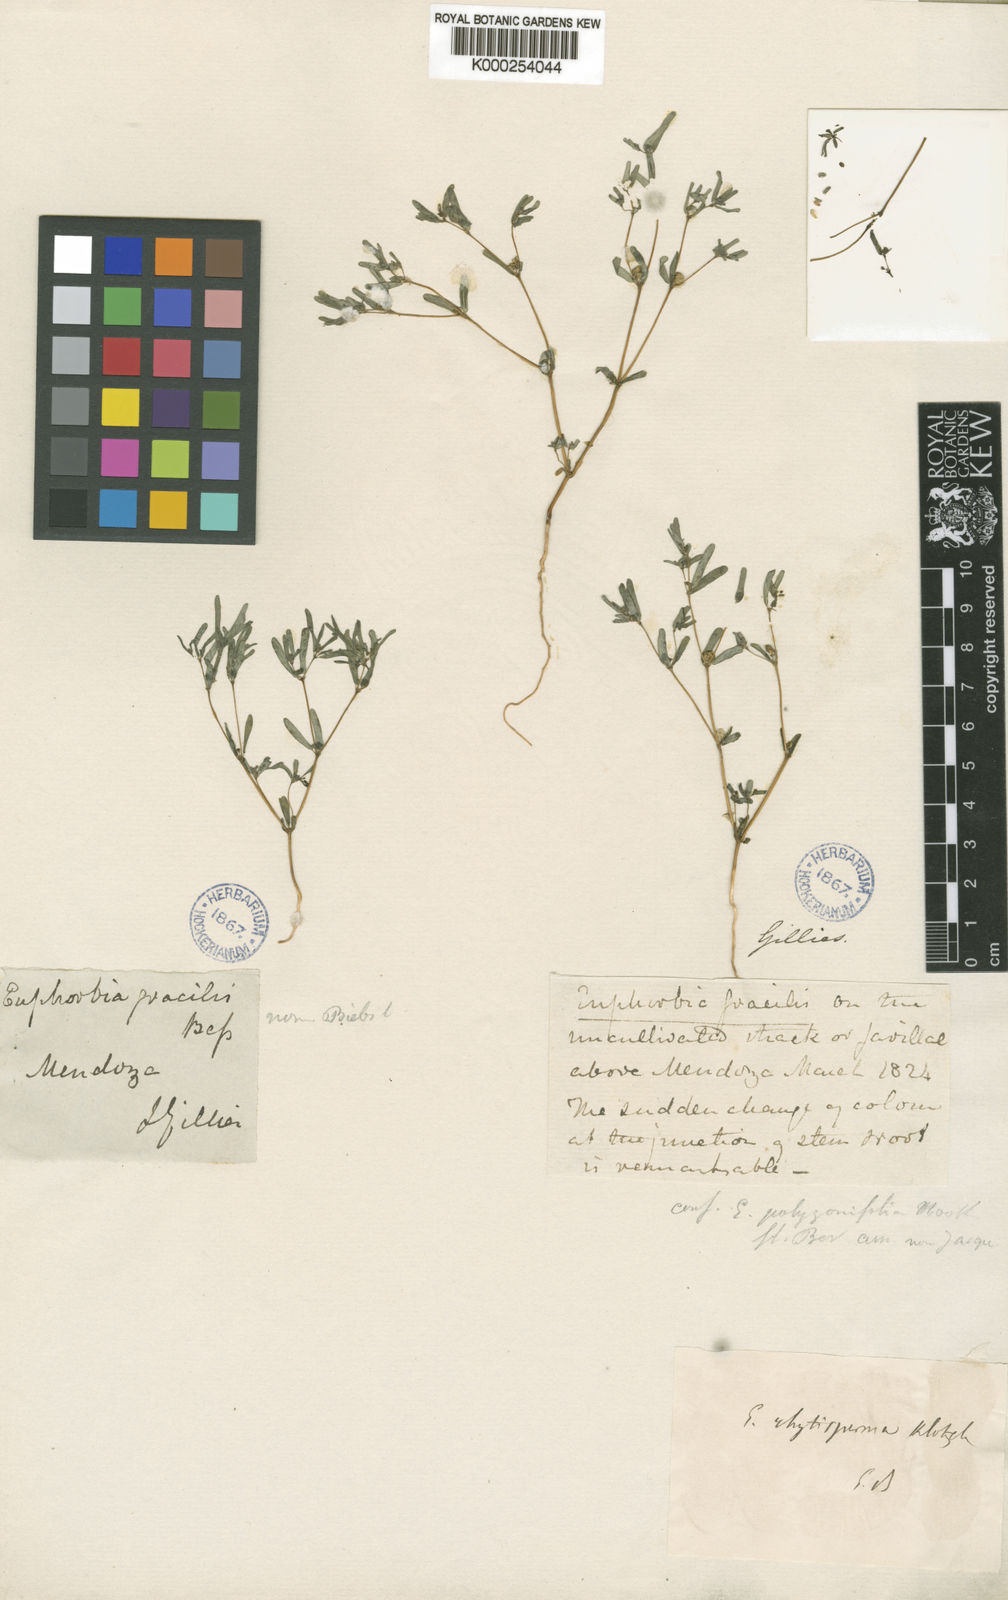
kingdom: Plantae
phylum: Tracheophyta
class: Magnoliopsida
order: Malpighiales
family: Euphorbiaceae
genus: Euphorbia
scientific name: Euphorbia rhytisperma
